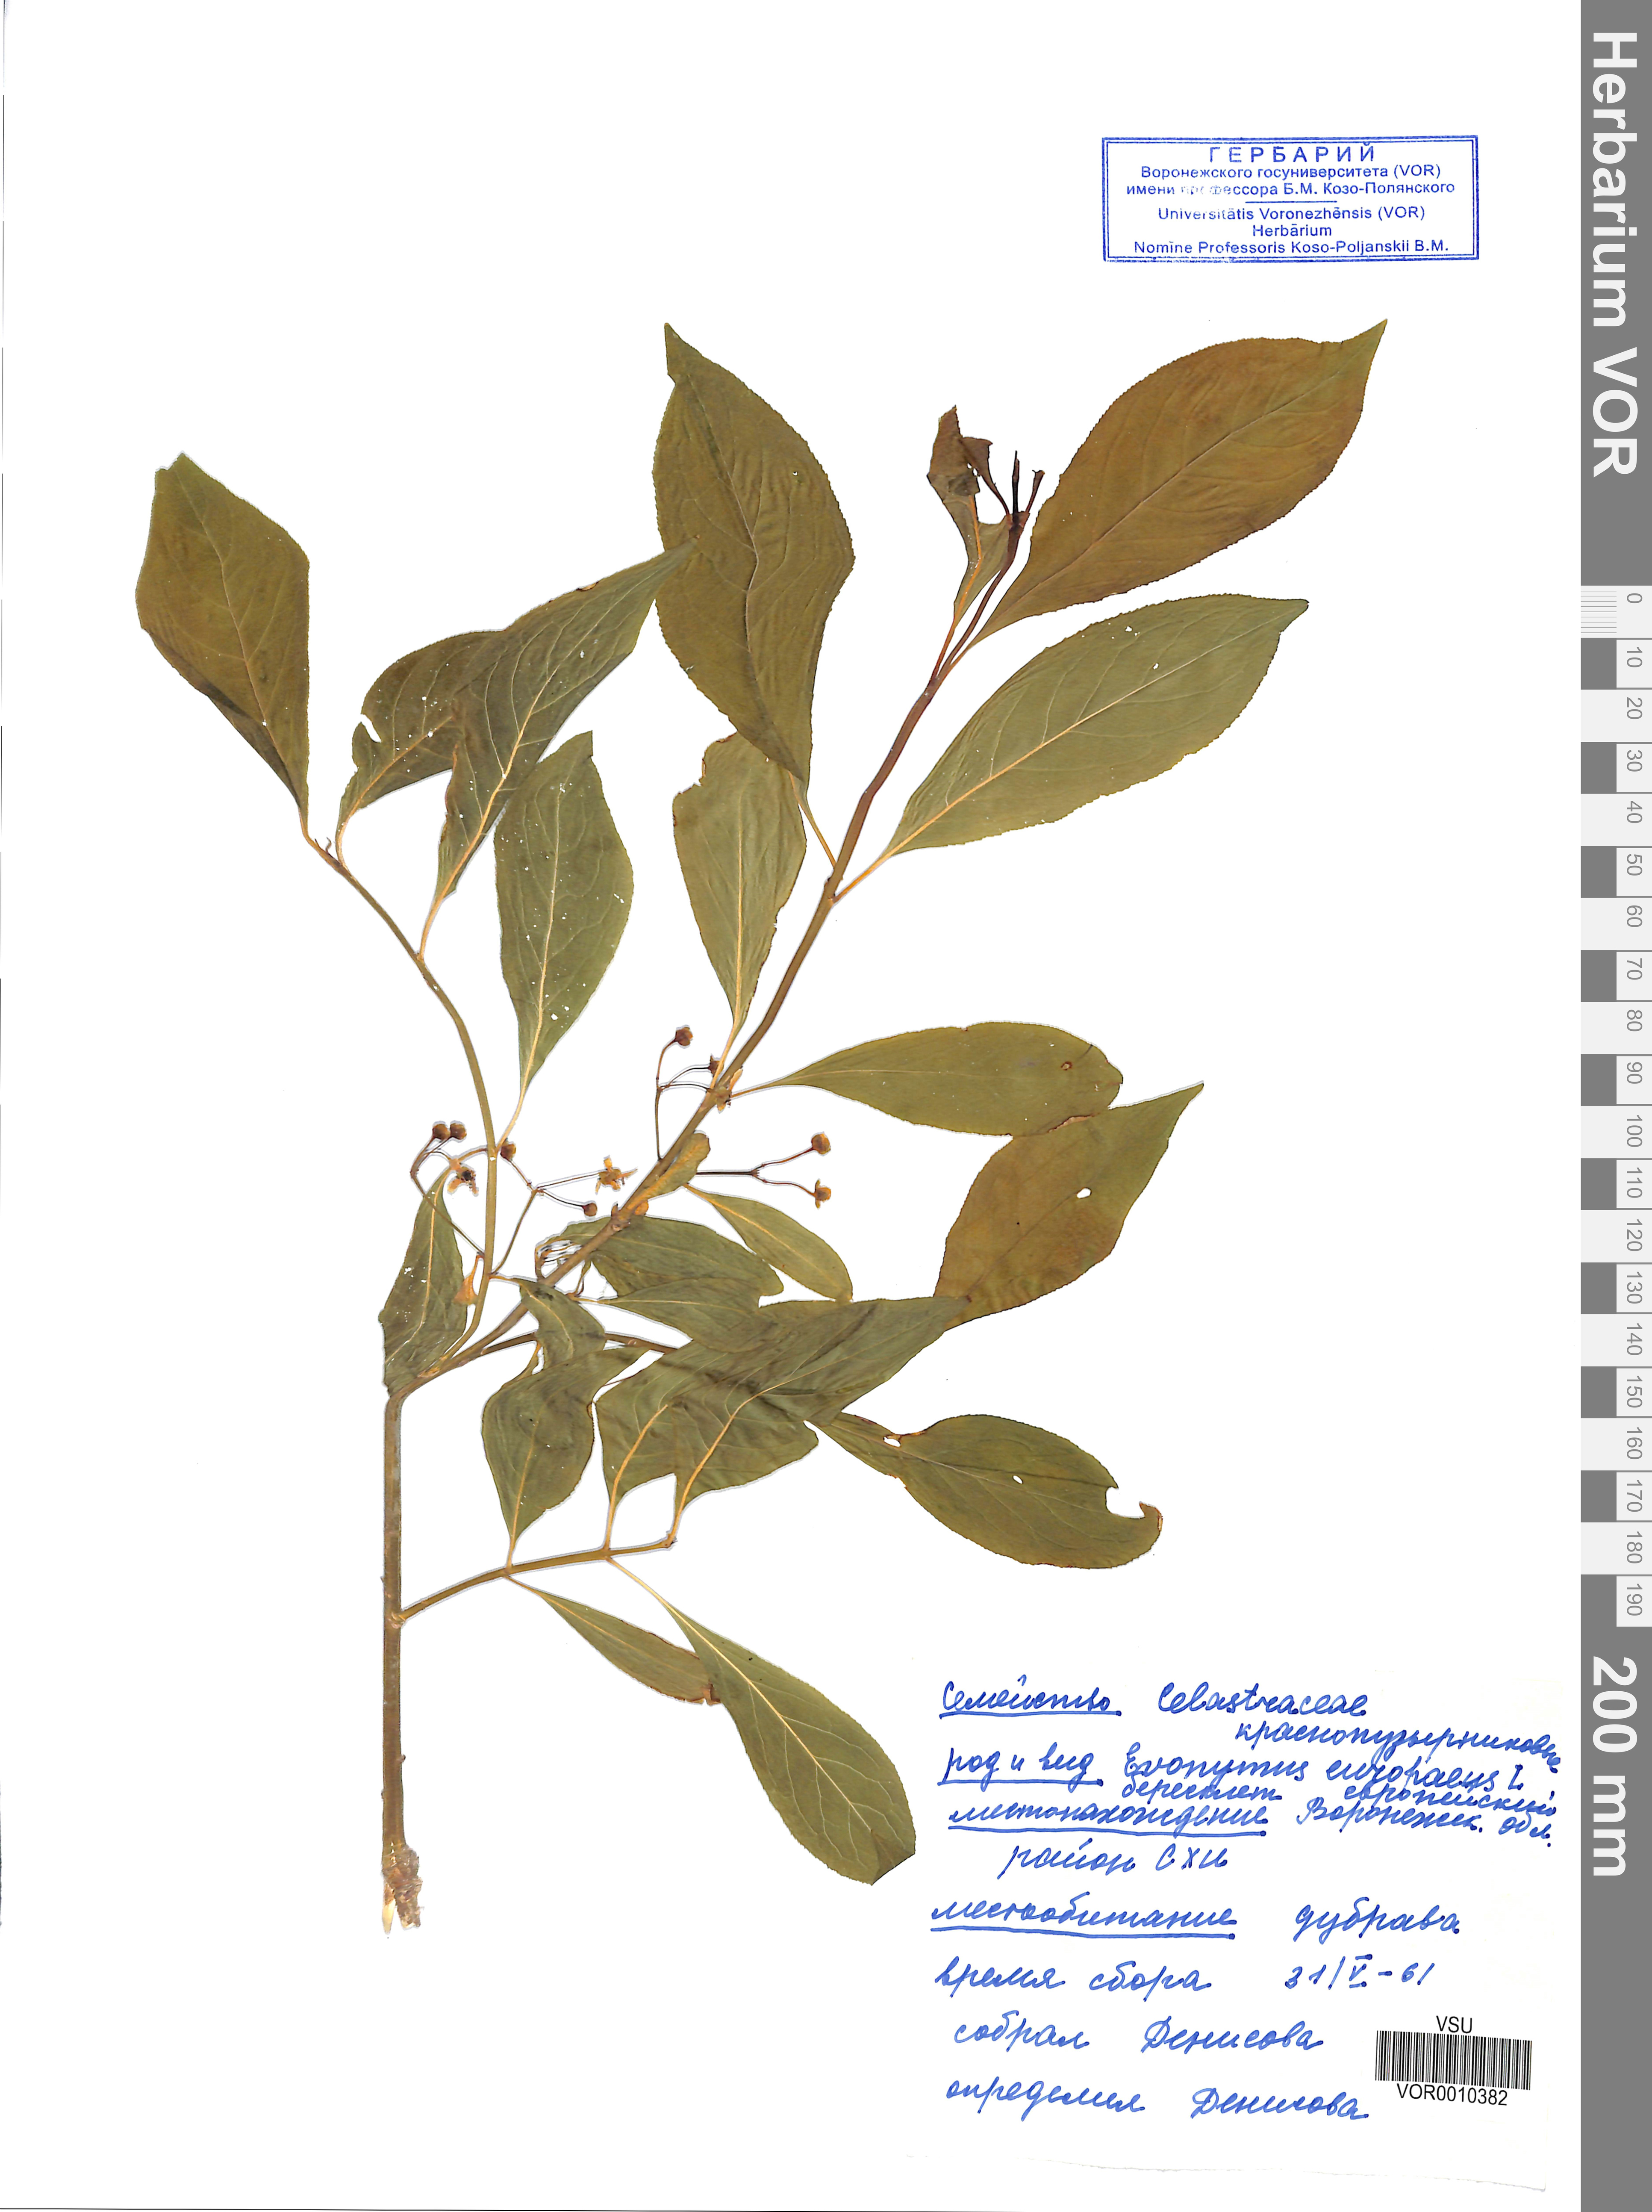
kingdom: Plantae
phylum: Tracheophyta
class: Magnoliopsida
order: Celastrales
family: Celastraceae
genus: Euonymus
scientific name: Euonymus europaeus
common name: Spindle
